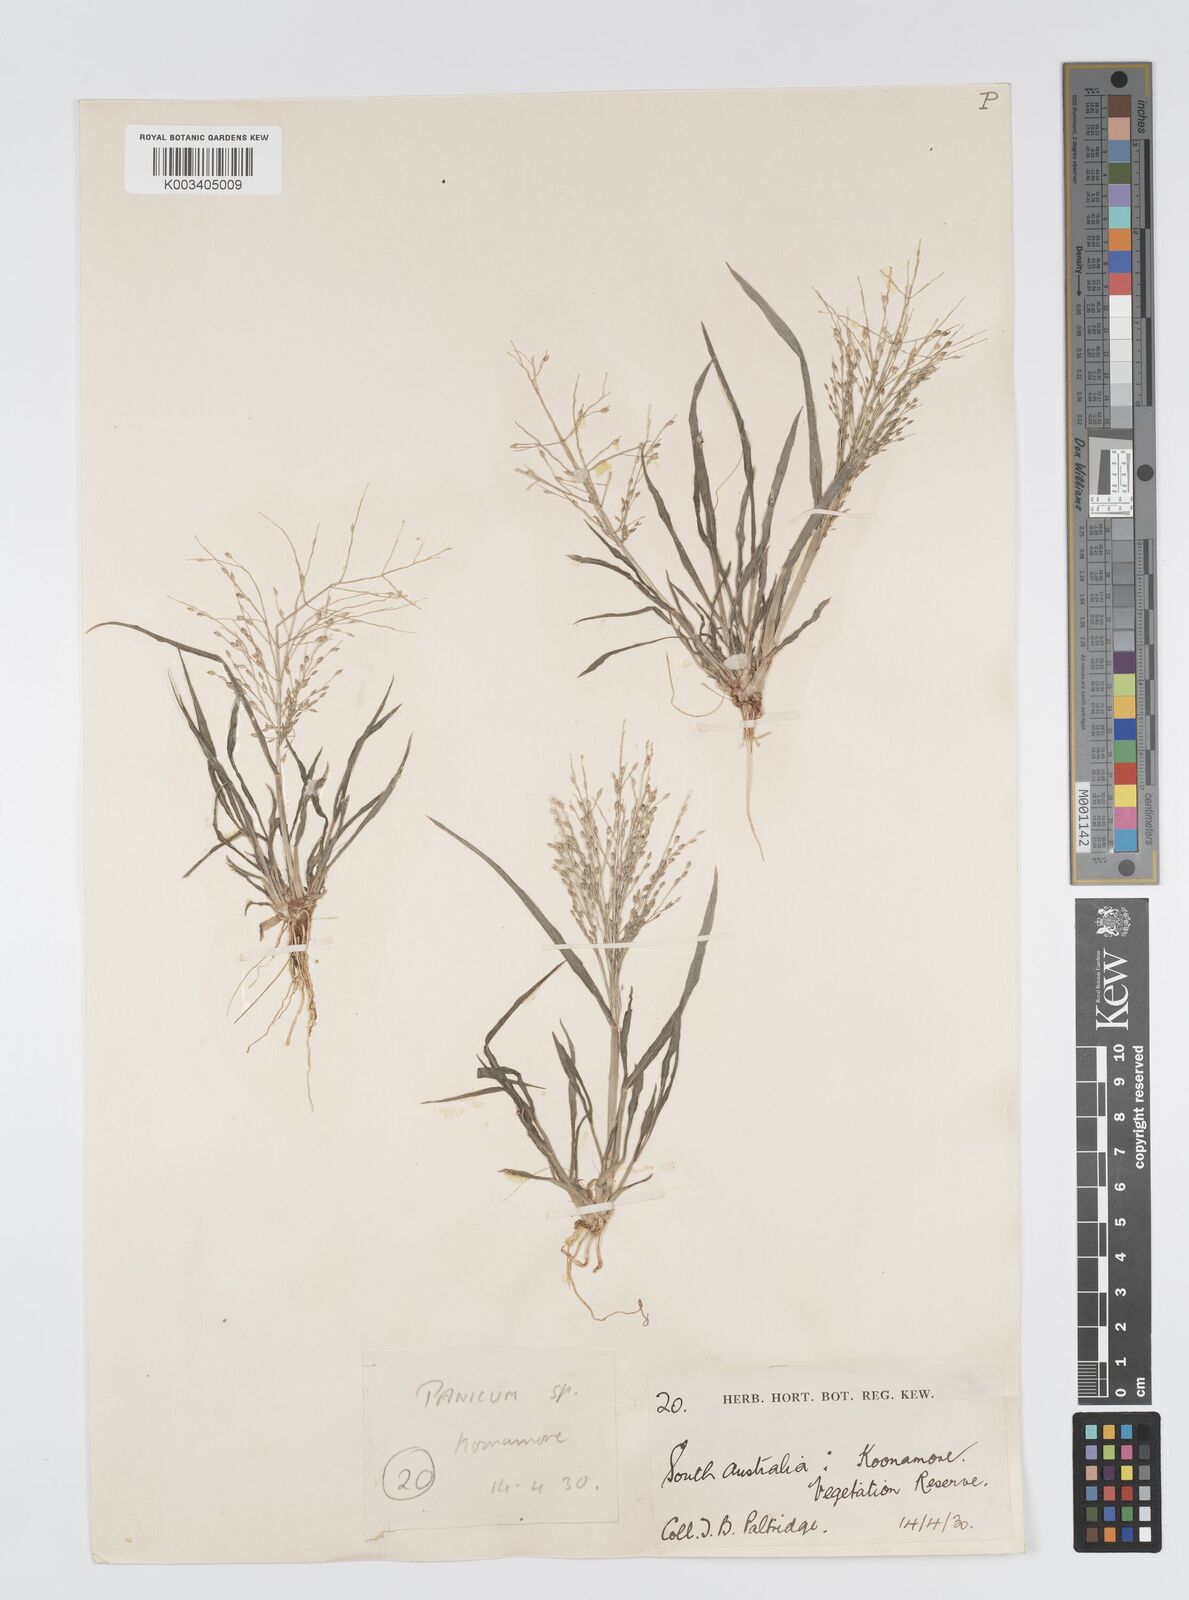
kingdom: Plantae
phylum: Tracheophyta
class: Liliopsida
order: Poales
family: Poaceae
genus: Panicum
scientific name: Panicum effusum
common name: Hairy panic grass
